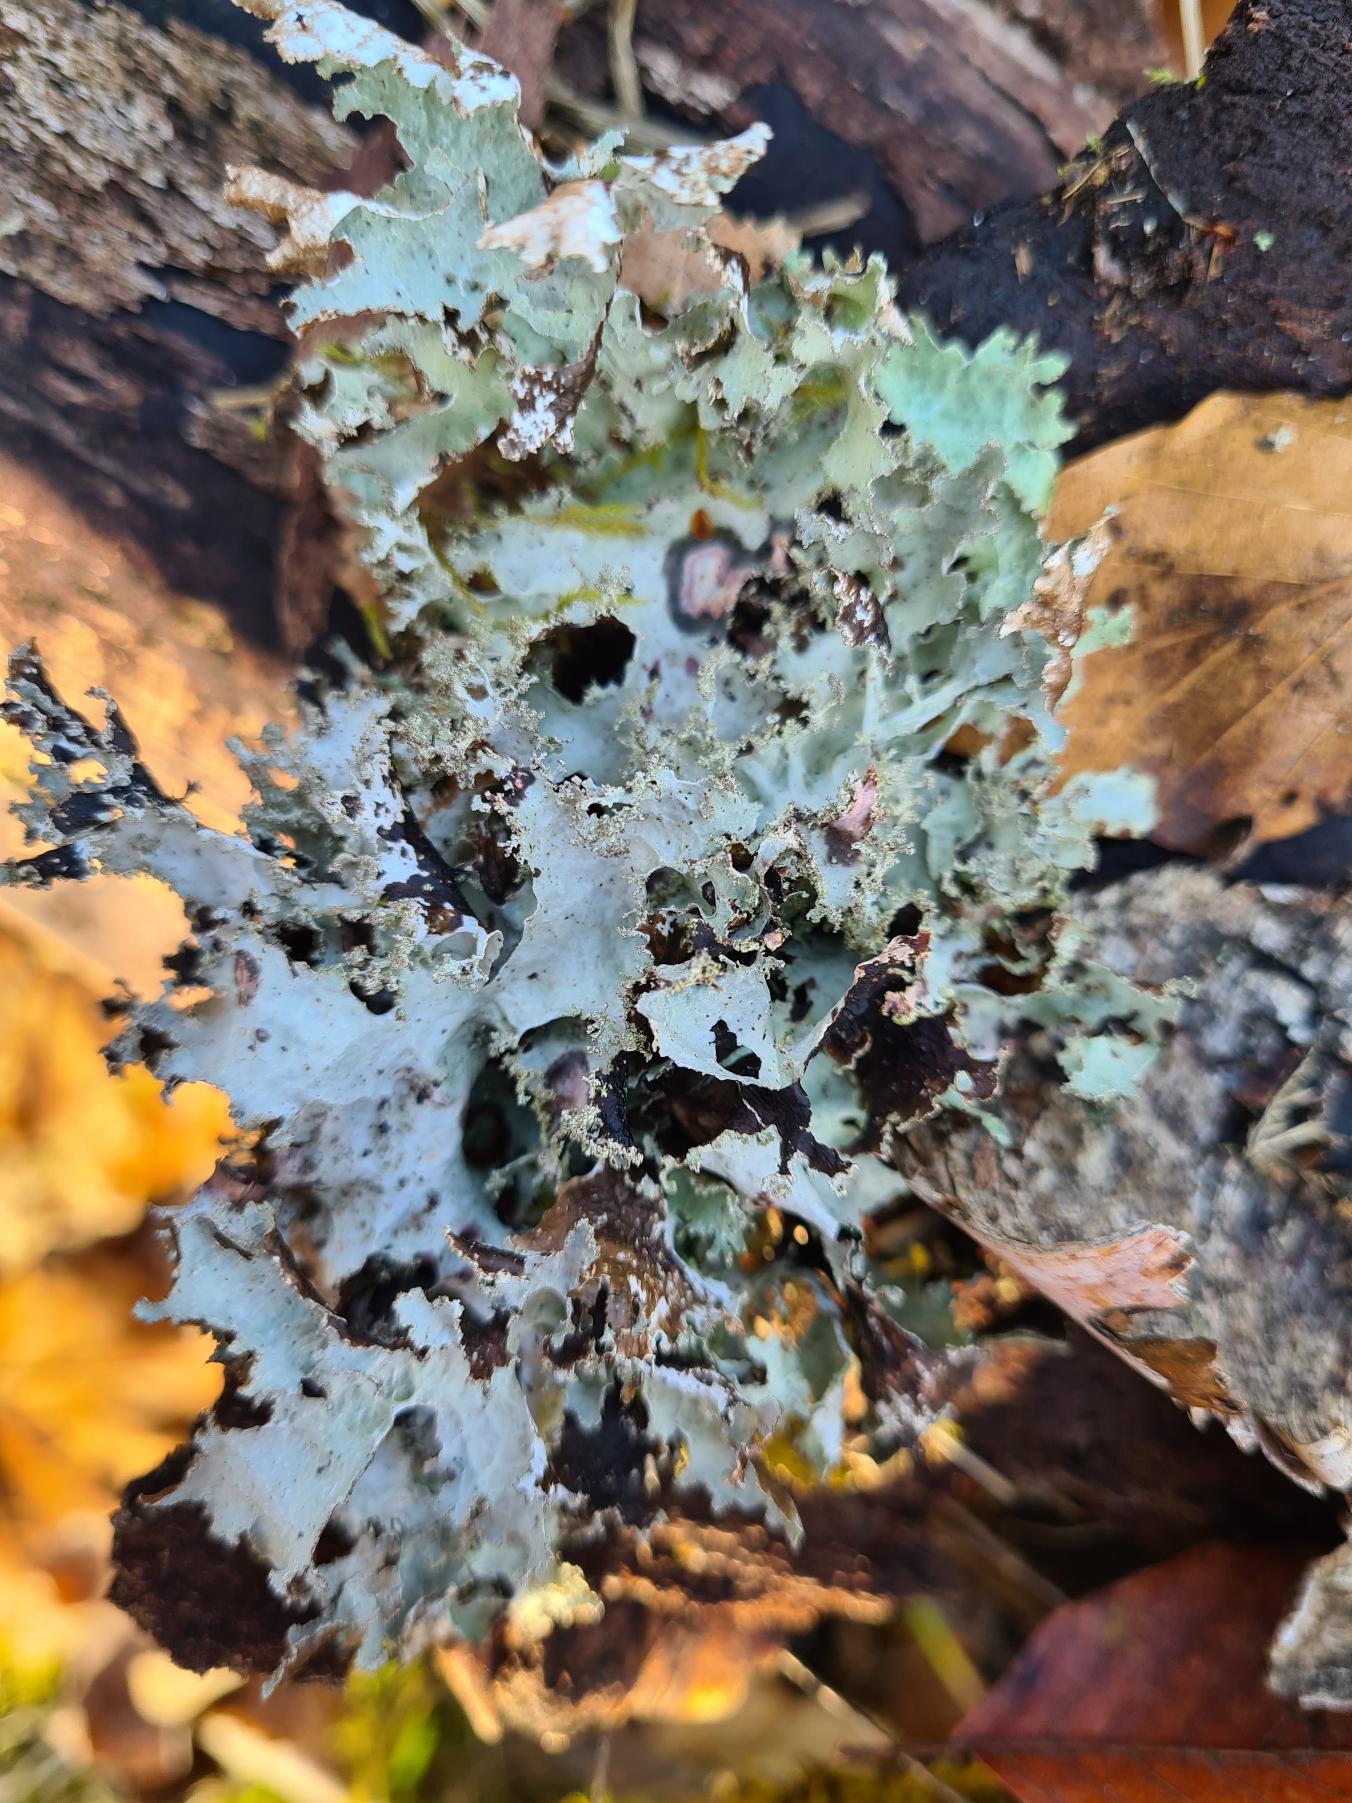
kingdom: Fungi
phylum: Ascomycota
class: Lecanoromycetes
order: Lecanorales
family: Parmeliaceae
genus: Platismatia
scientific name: Platismatia glauca
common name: Blågrå papirlav
